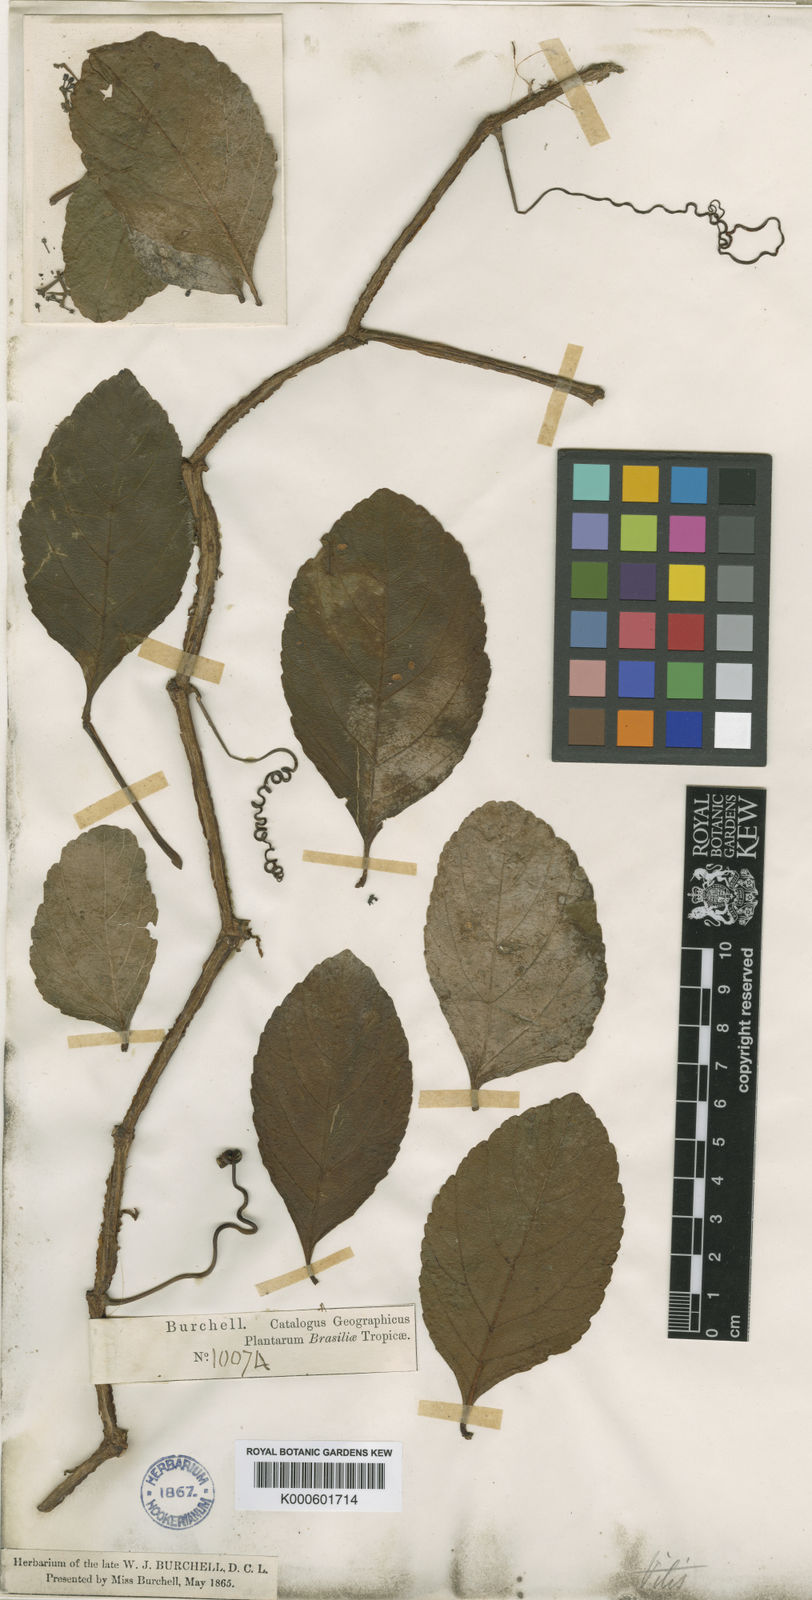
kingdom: Plantae
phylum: Tracheophyta
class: Magnoliopsida
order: Vitales
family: Vitaceae
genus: Cissus
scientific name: Cissus erosa
